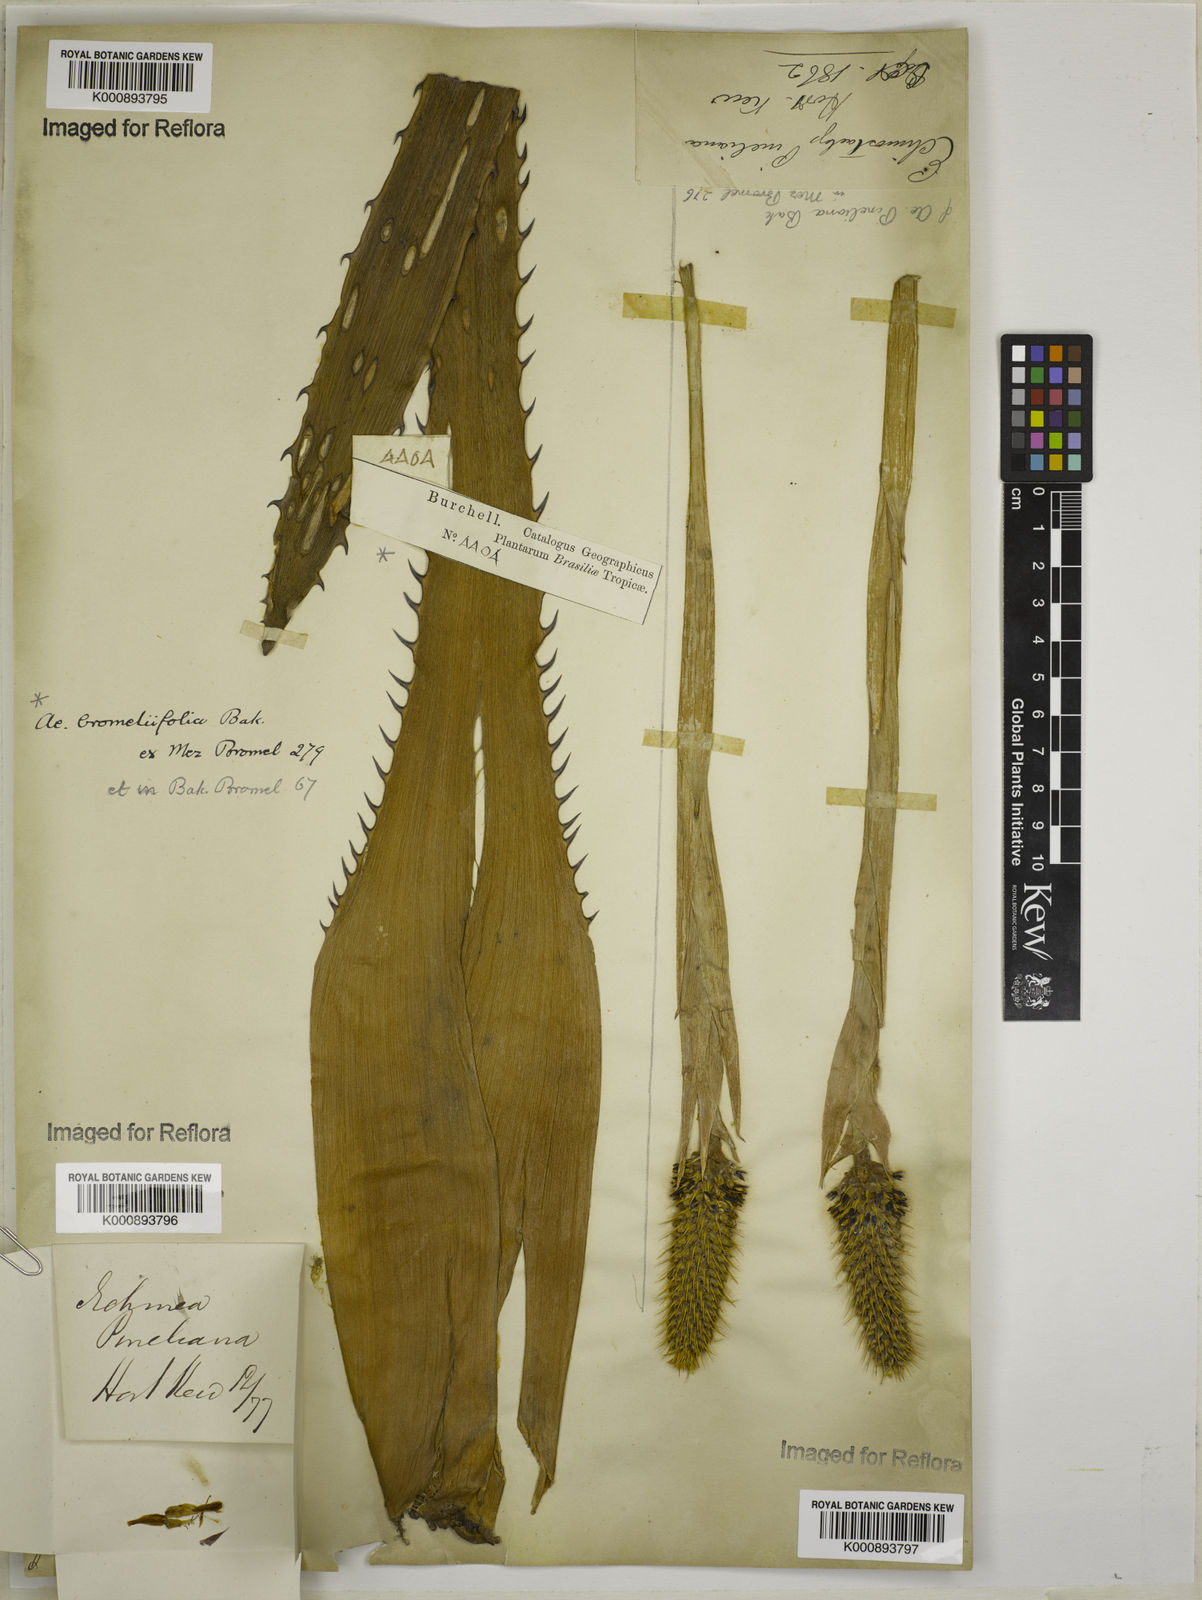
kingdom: Plantae
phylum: Tracheophyta
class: Liliopsida
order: Poales
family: Bromeliaceae
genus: Aechmea
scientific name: Aechmea pineliana
